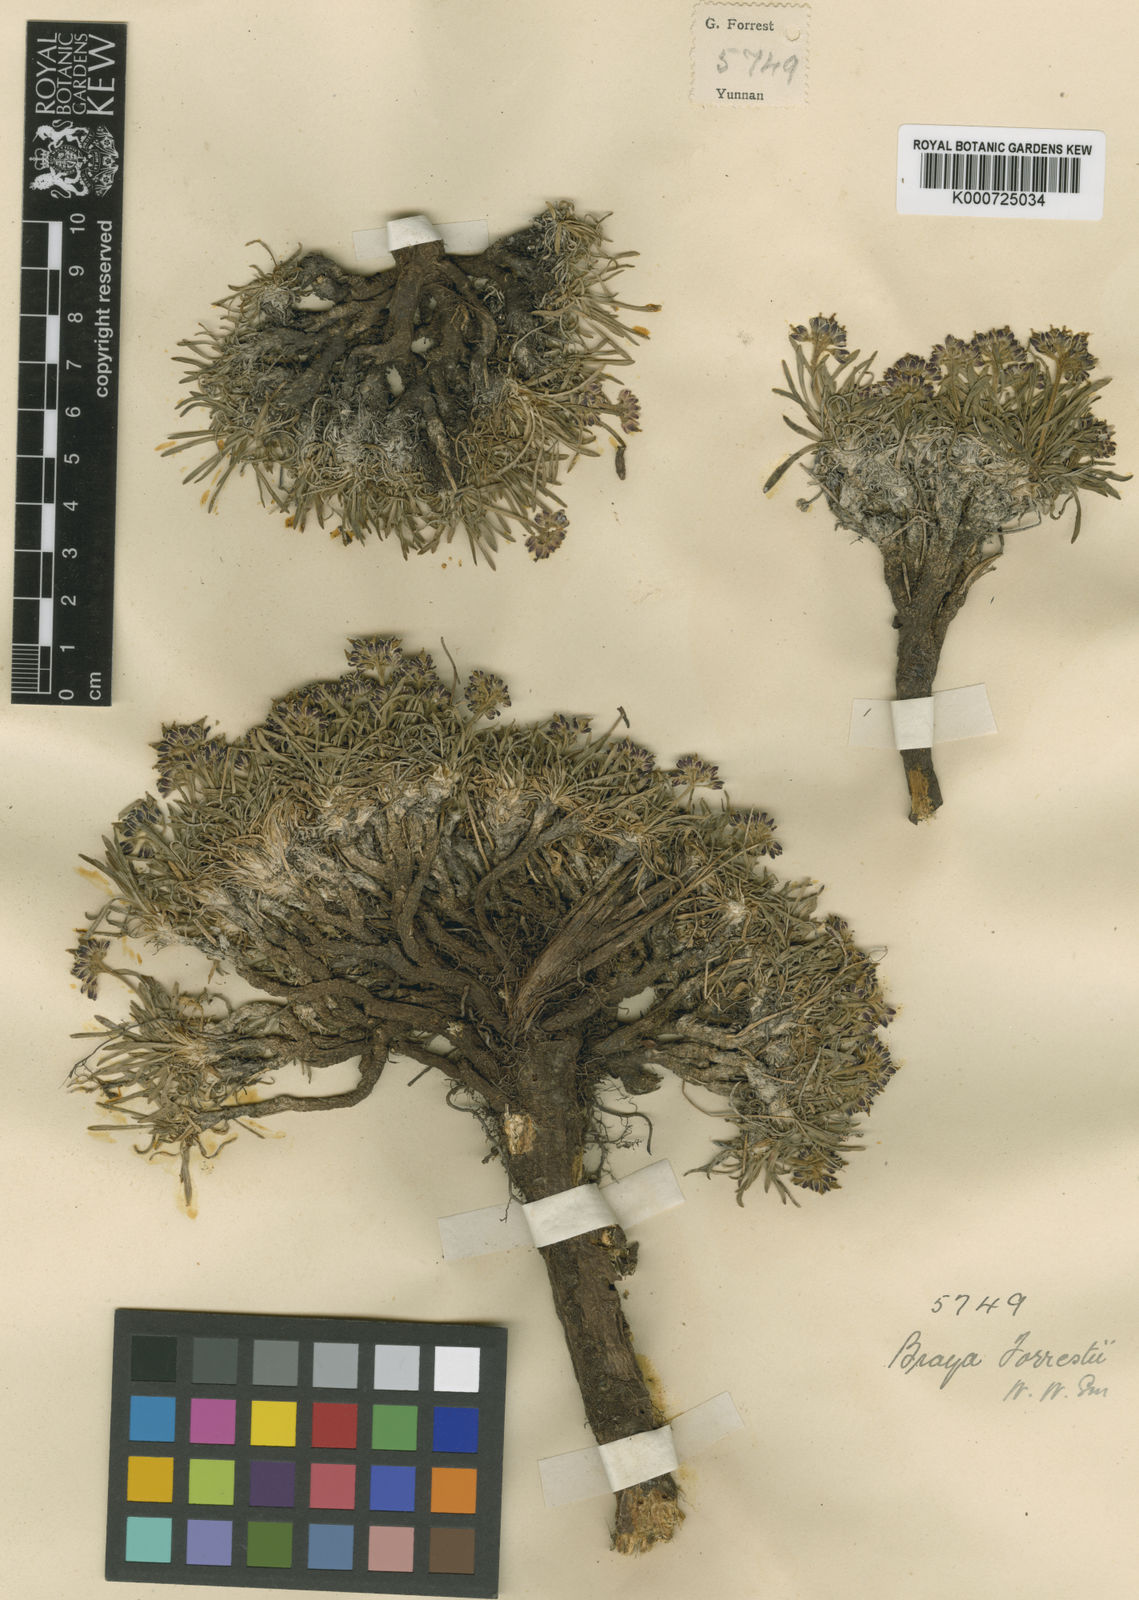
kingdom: Plantae
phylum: Tracheophyta
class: Magnoliopsida
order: Brassicales
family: Brassicaceae
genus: Metashangrilaia
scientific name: Metashangrilaia forrestii
